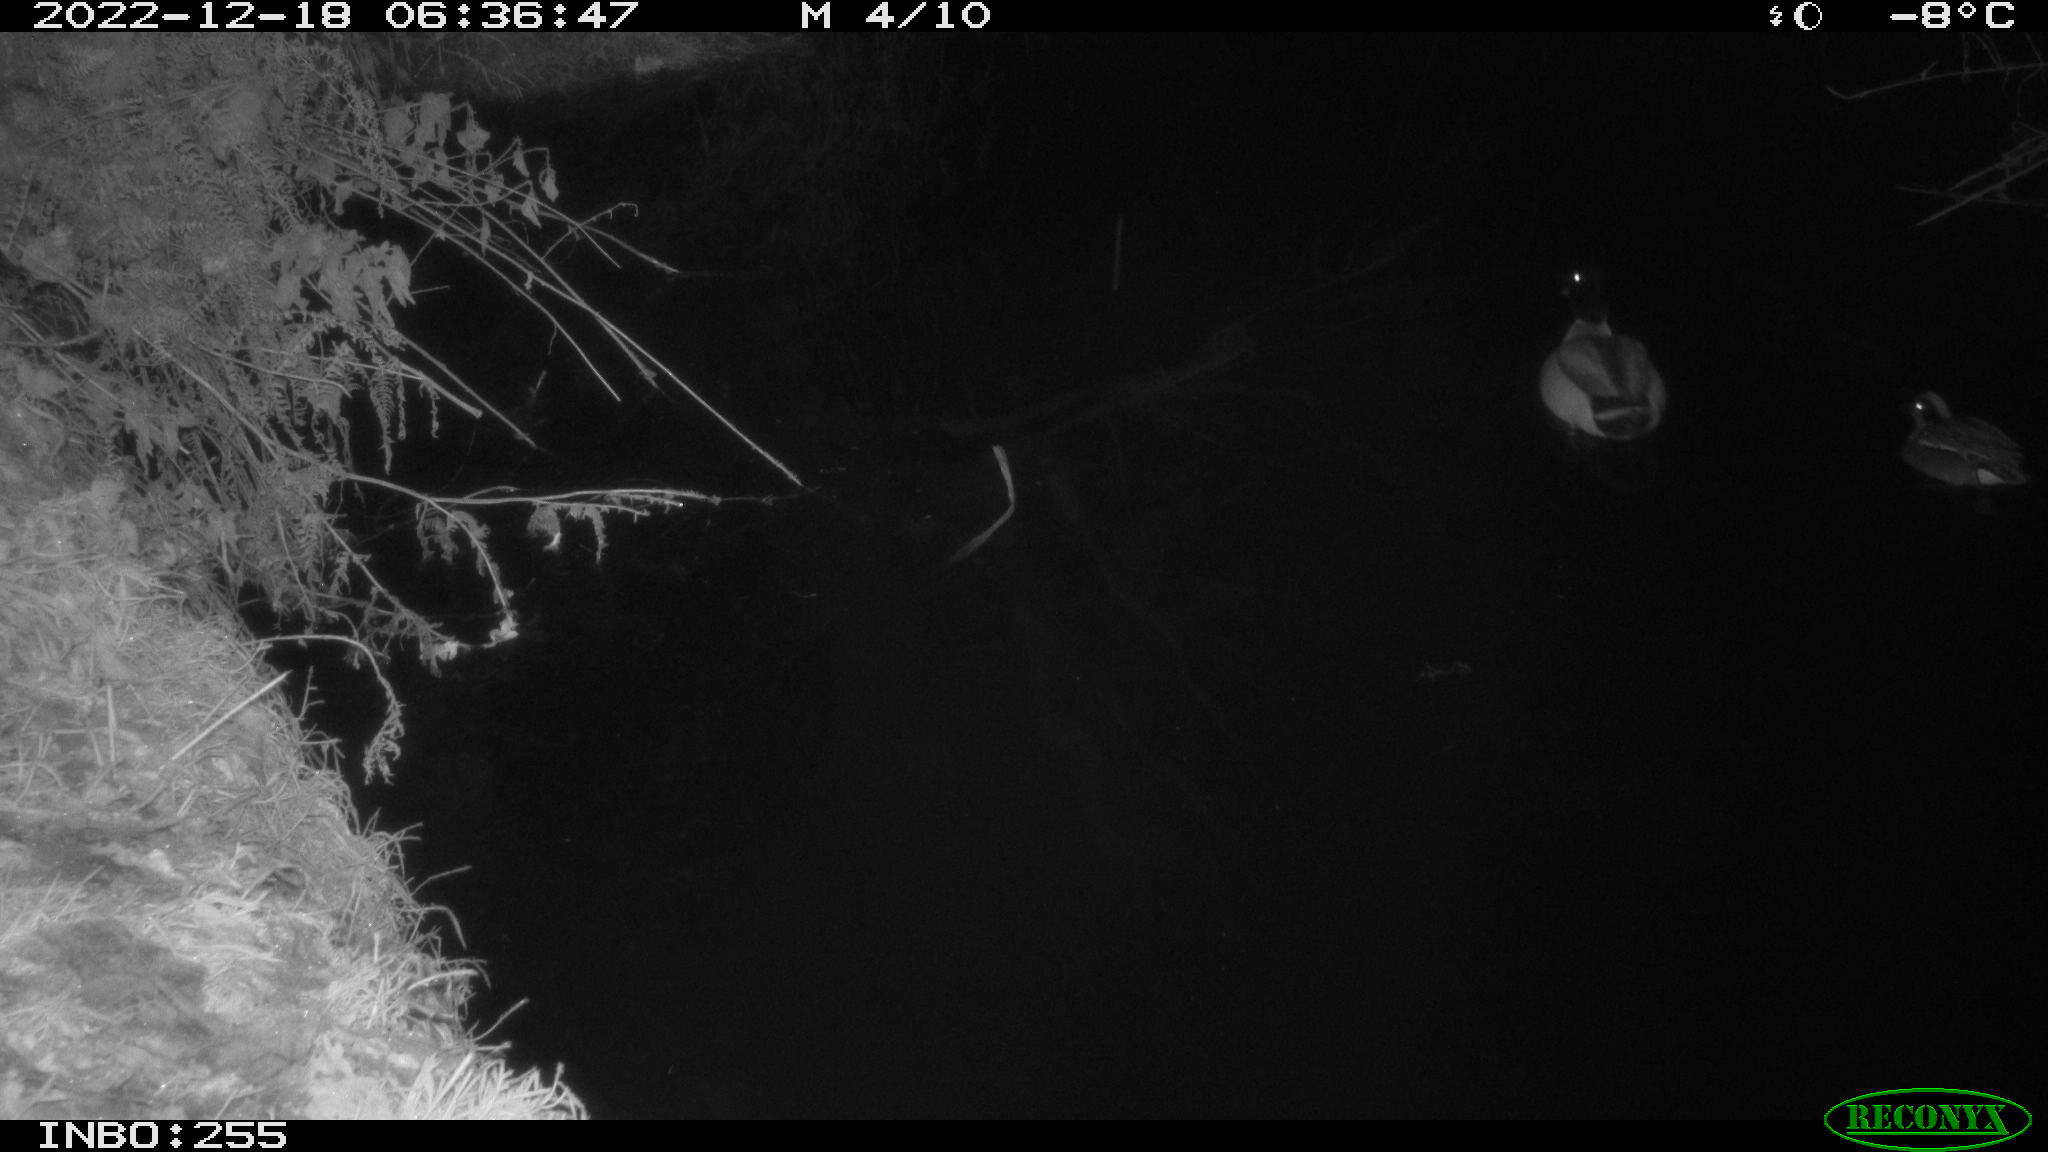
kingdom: Animalia
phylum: Chordata
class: Aves
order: Anseriformes
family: Anatidae
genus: Anas
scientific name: Anas
